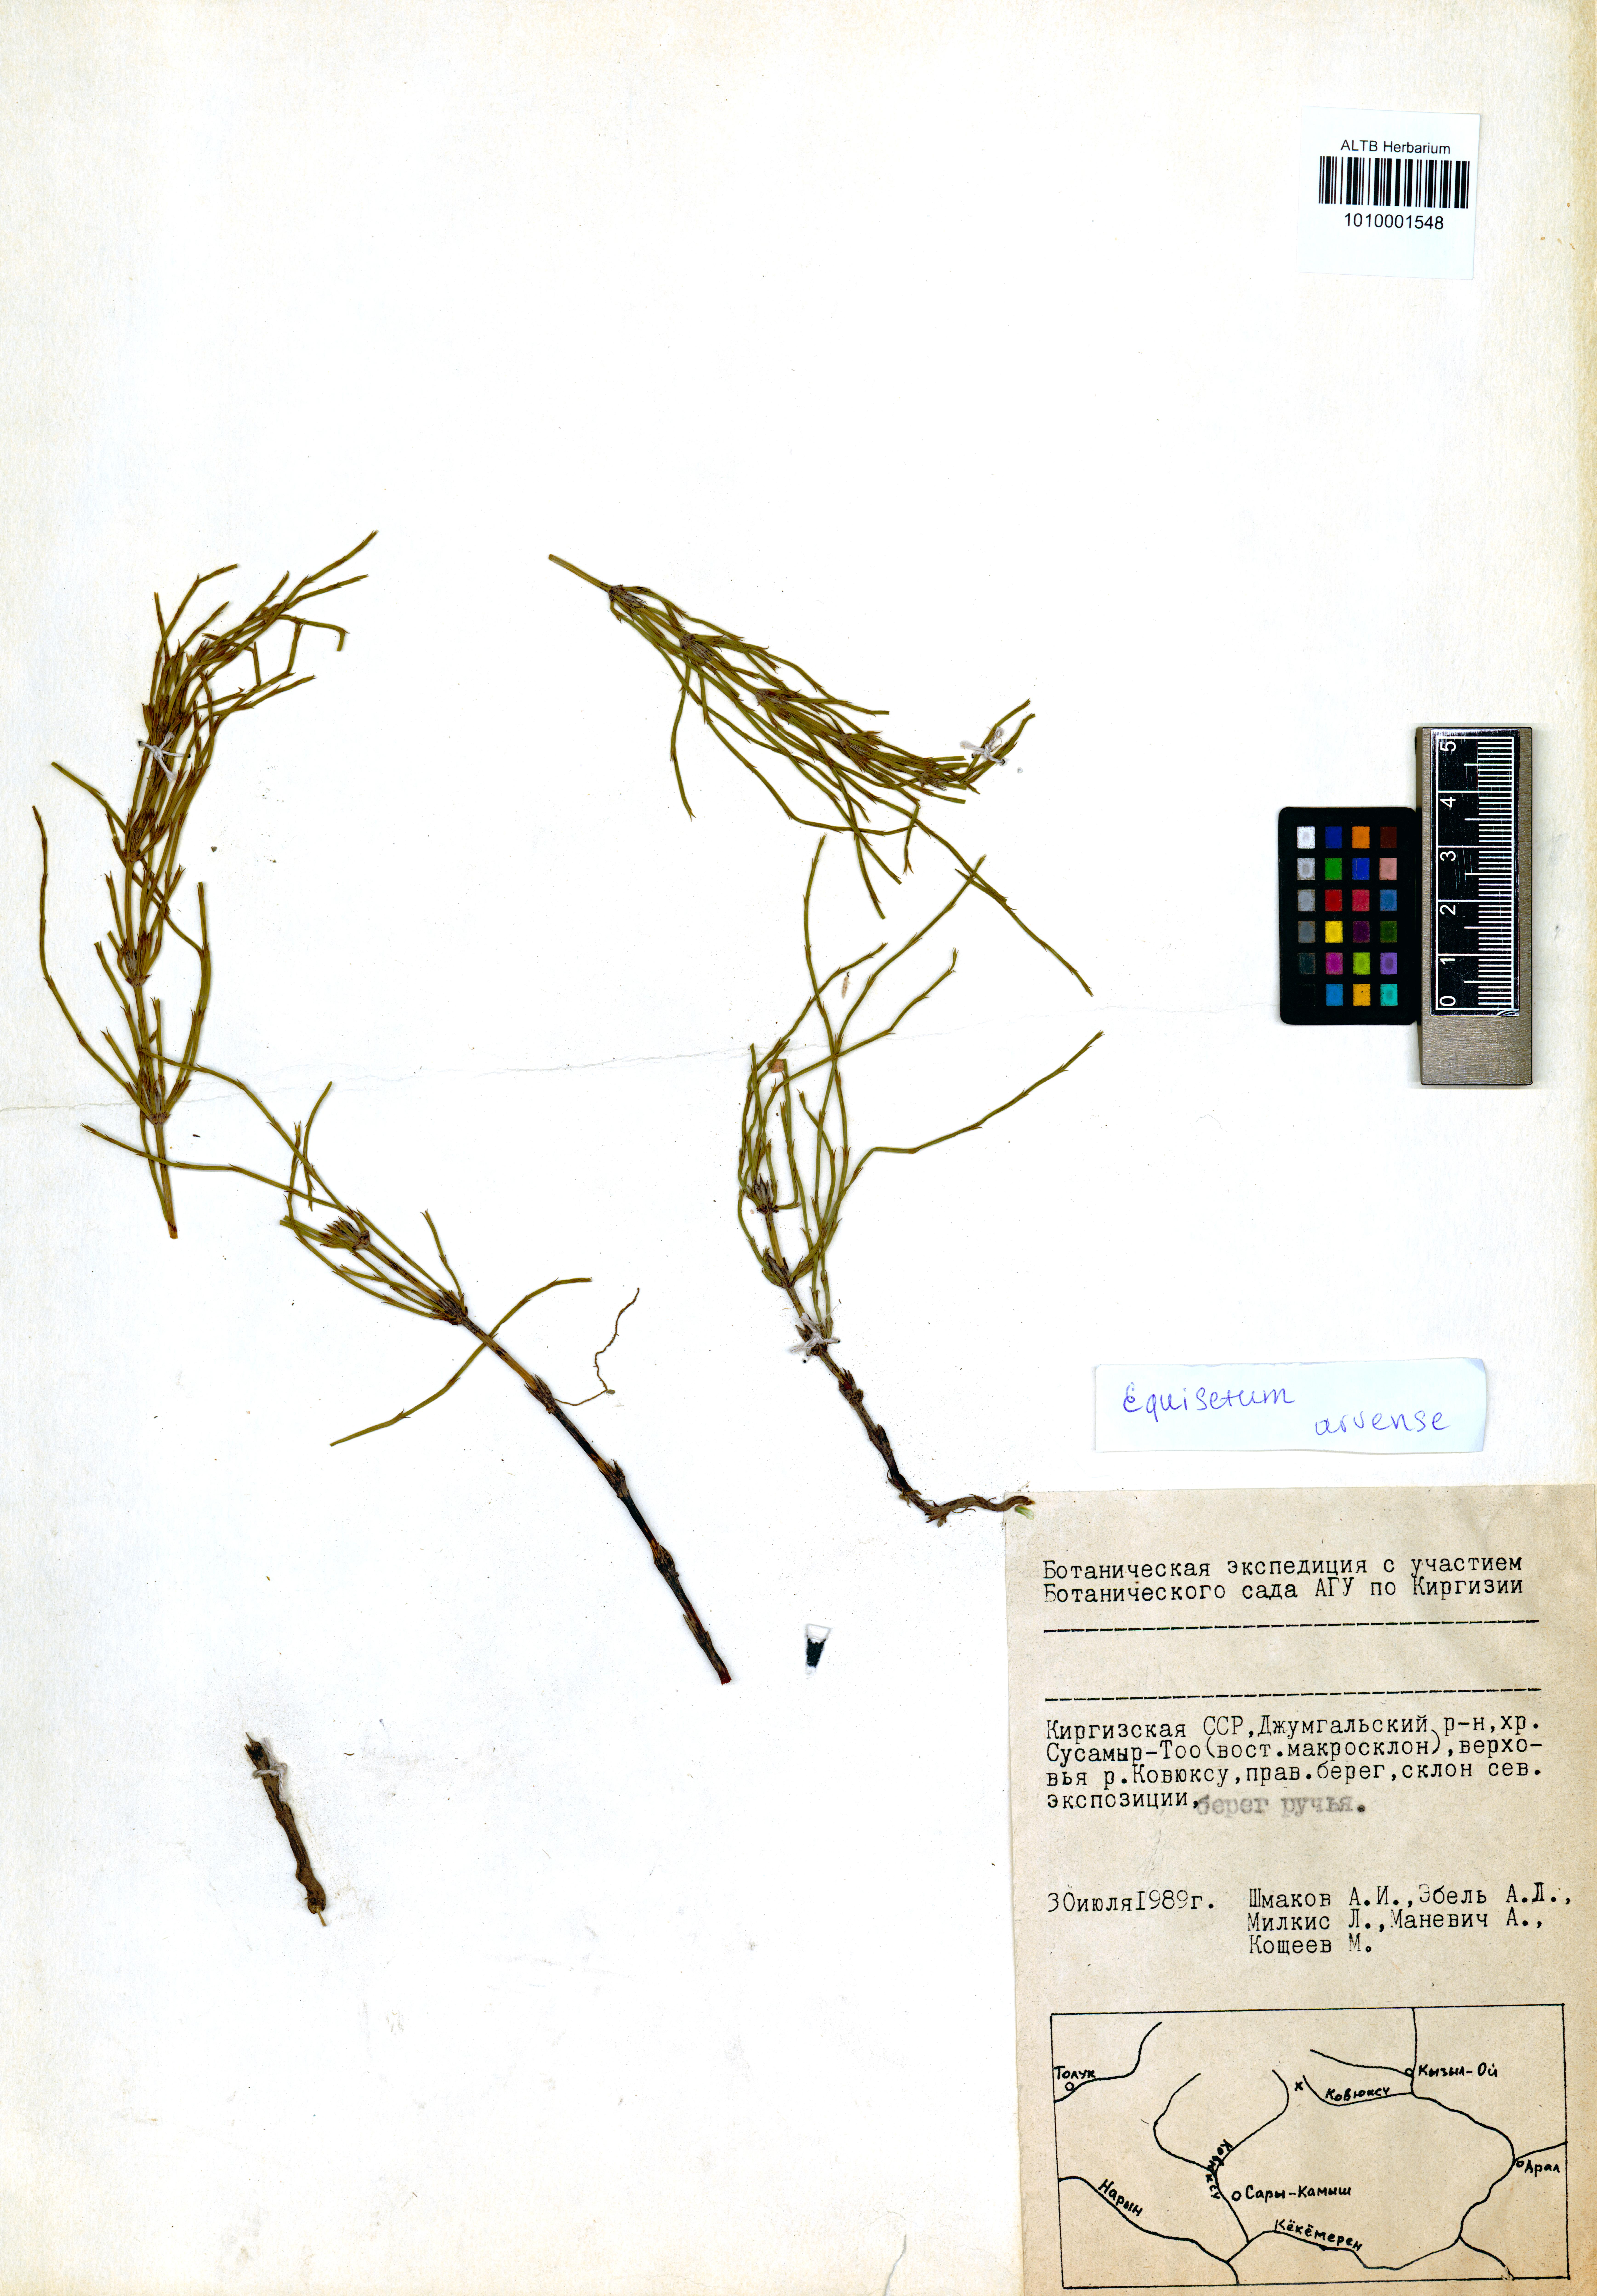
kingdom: Plantae
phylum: Tracheophyta
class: Polypodiopsida
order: Equisetales
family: Equisetaceae
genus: Equisetum
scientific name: Equisetum arvense
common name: Field horsetail
